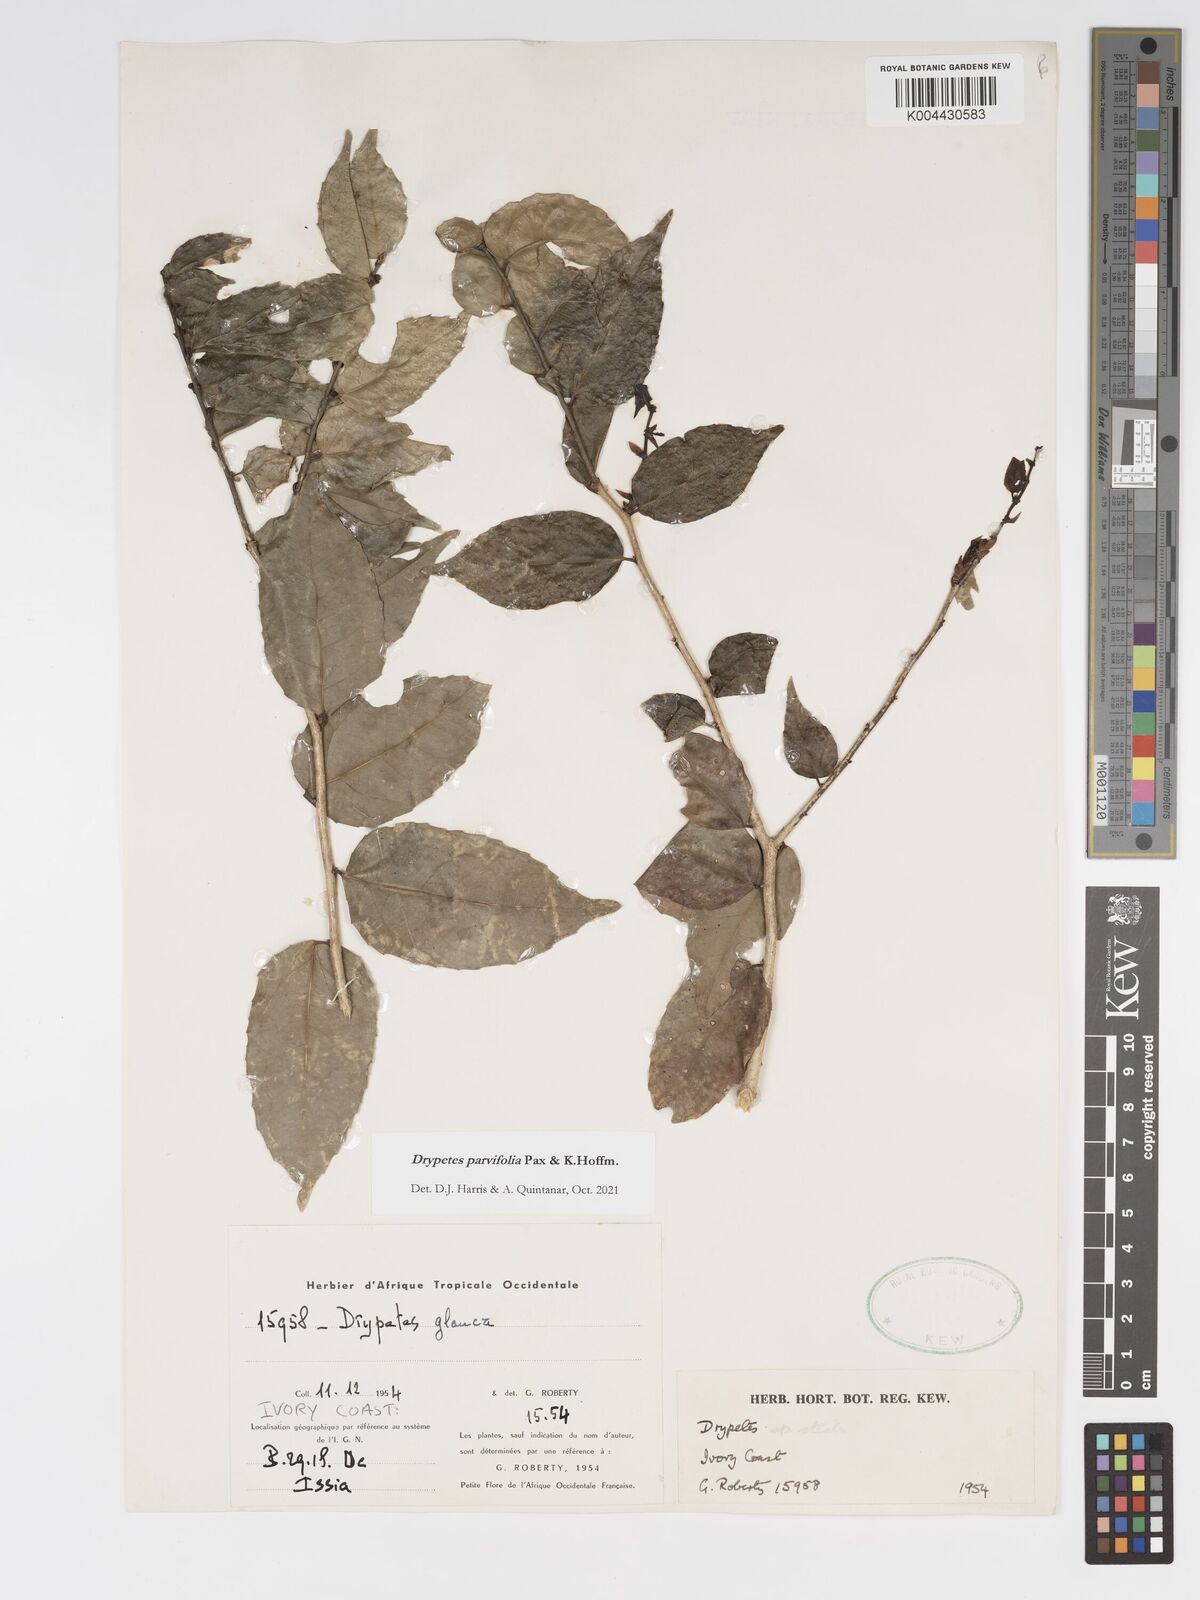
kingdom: Plantae
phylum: Tracheophyta
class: Magnoliopsida
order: Malpighiales
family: Putranjivaceae
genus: Drypetes
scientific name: Drypetes parvifolia
